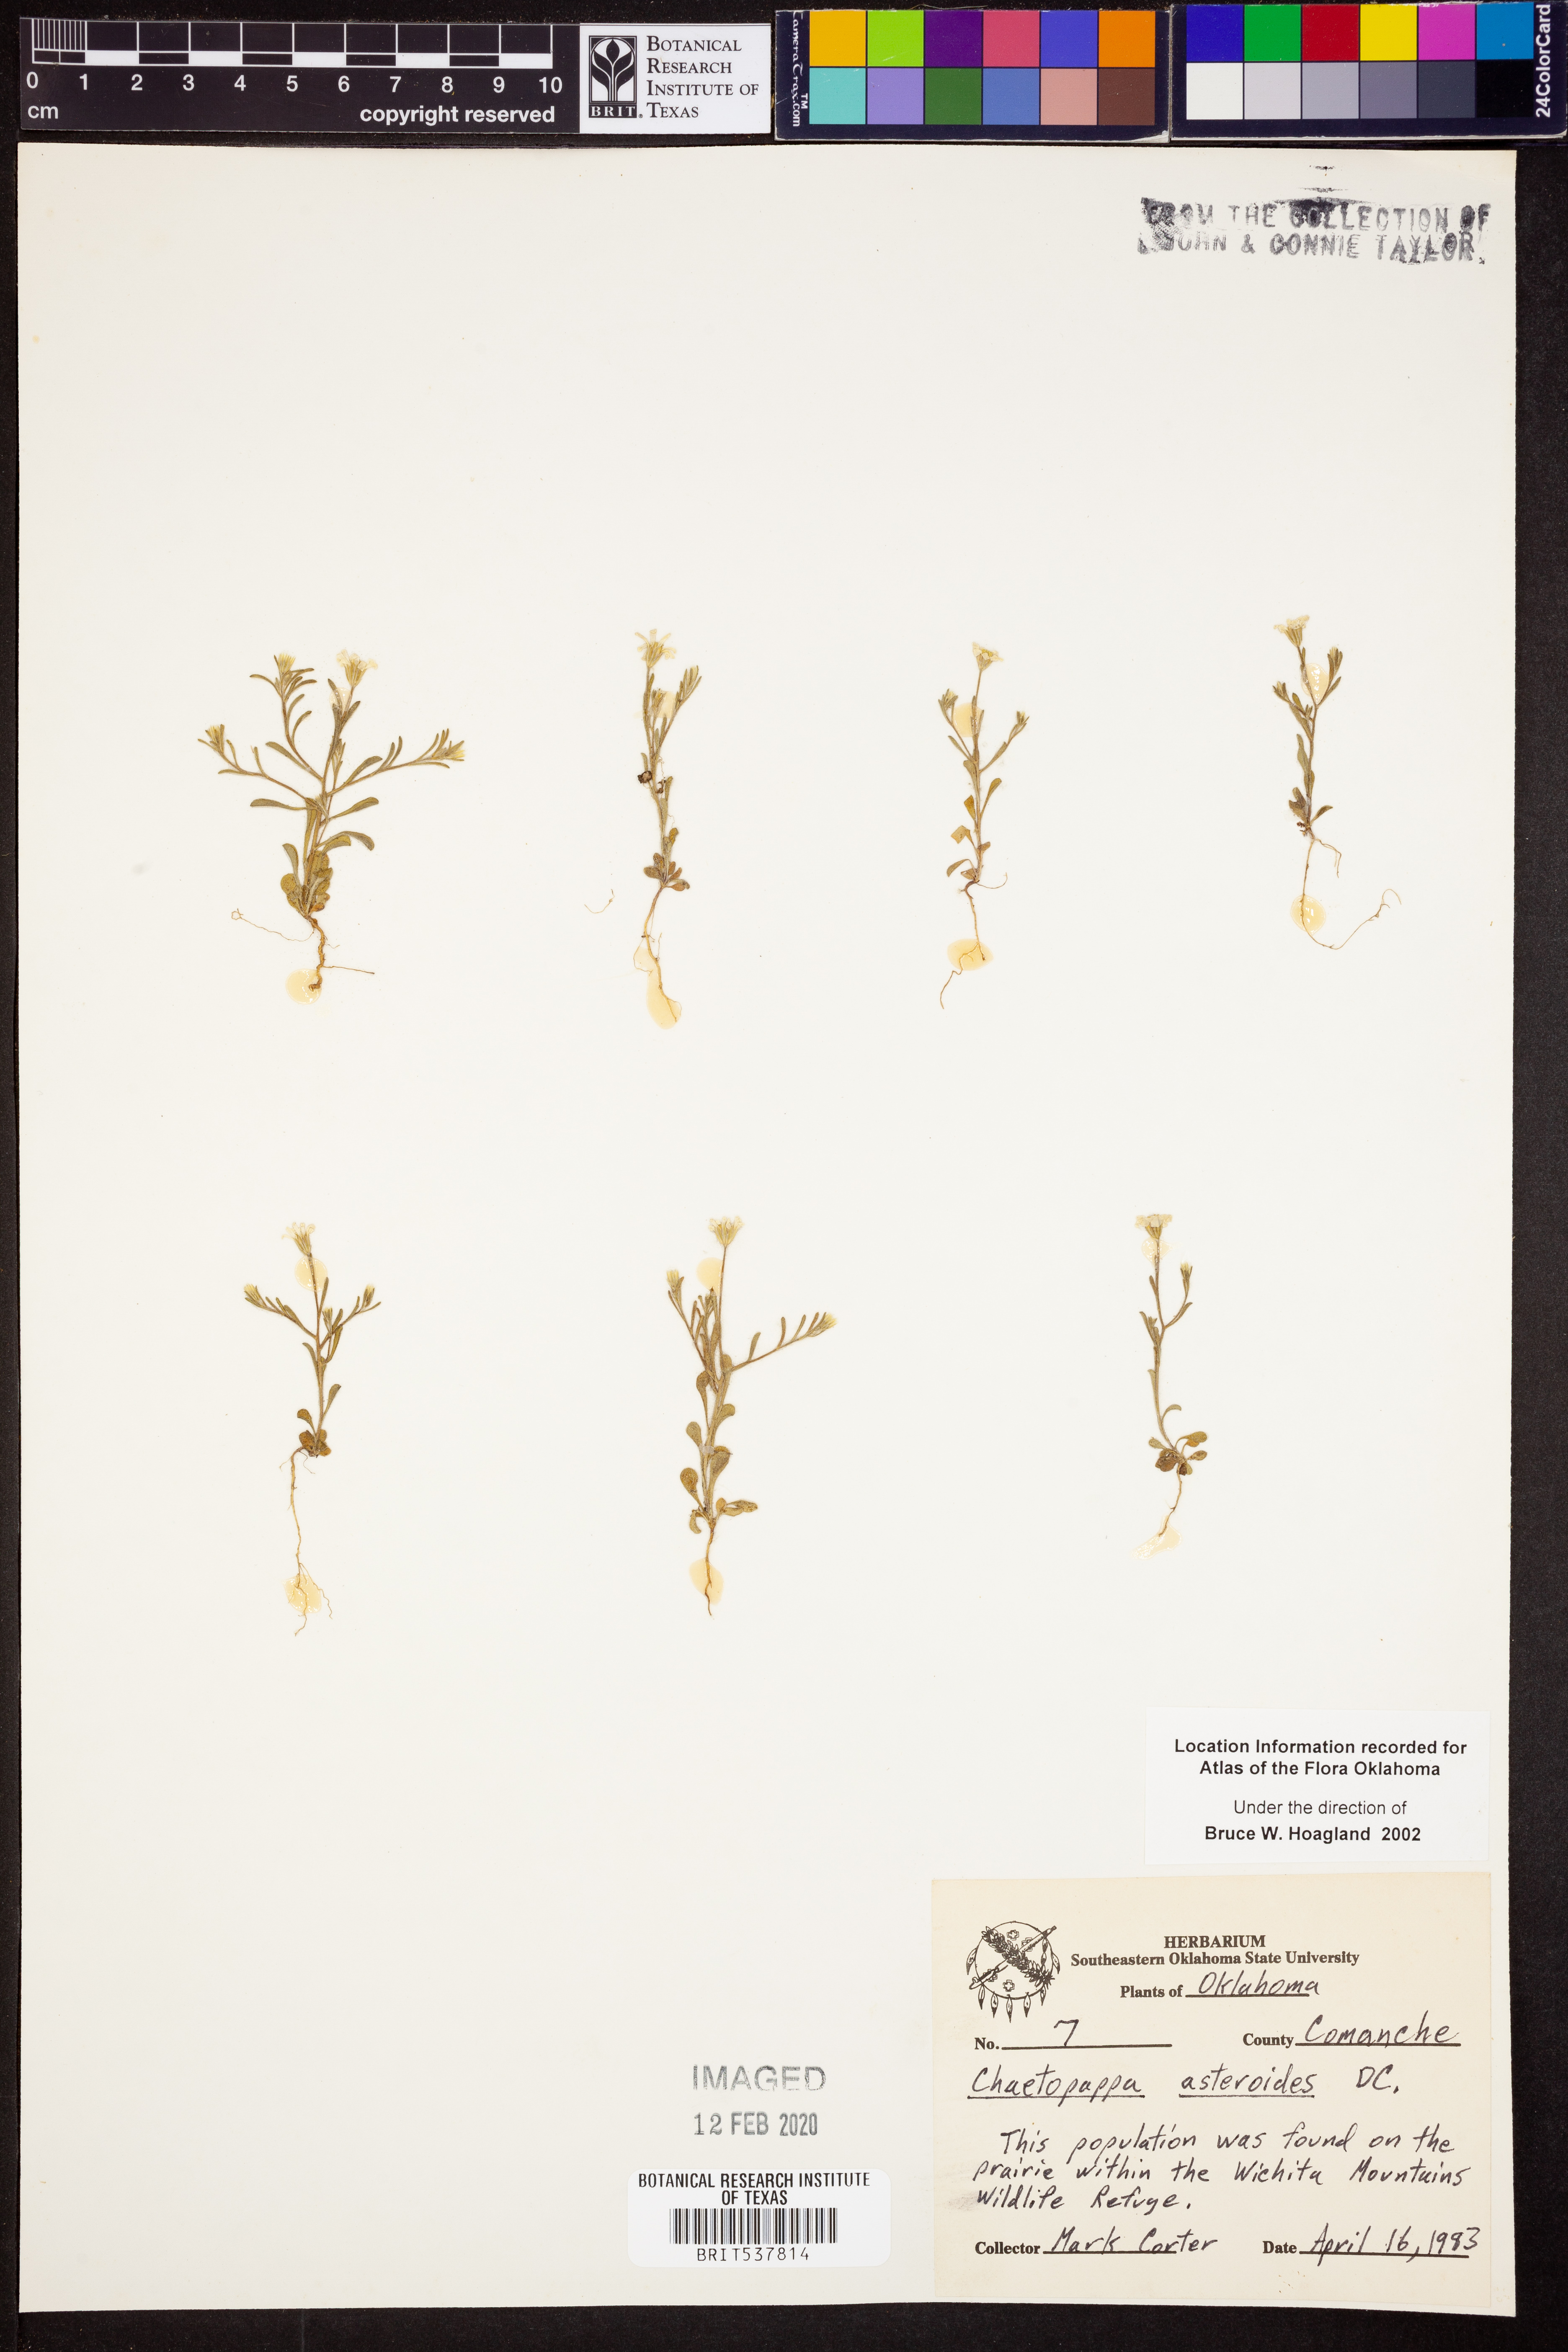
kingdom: Plantae
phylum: Tracheophyta
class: Magnoliopsida
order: Asterales
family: Asteraceae
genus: Chaetopappa
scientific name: Chaetopappa asteroides
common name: Tiny lazy daisy
